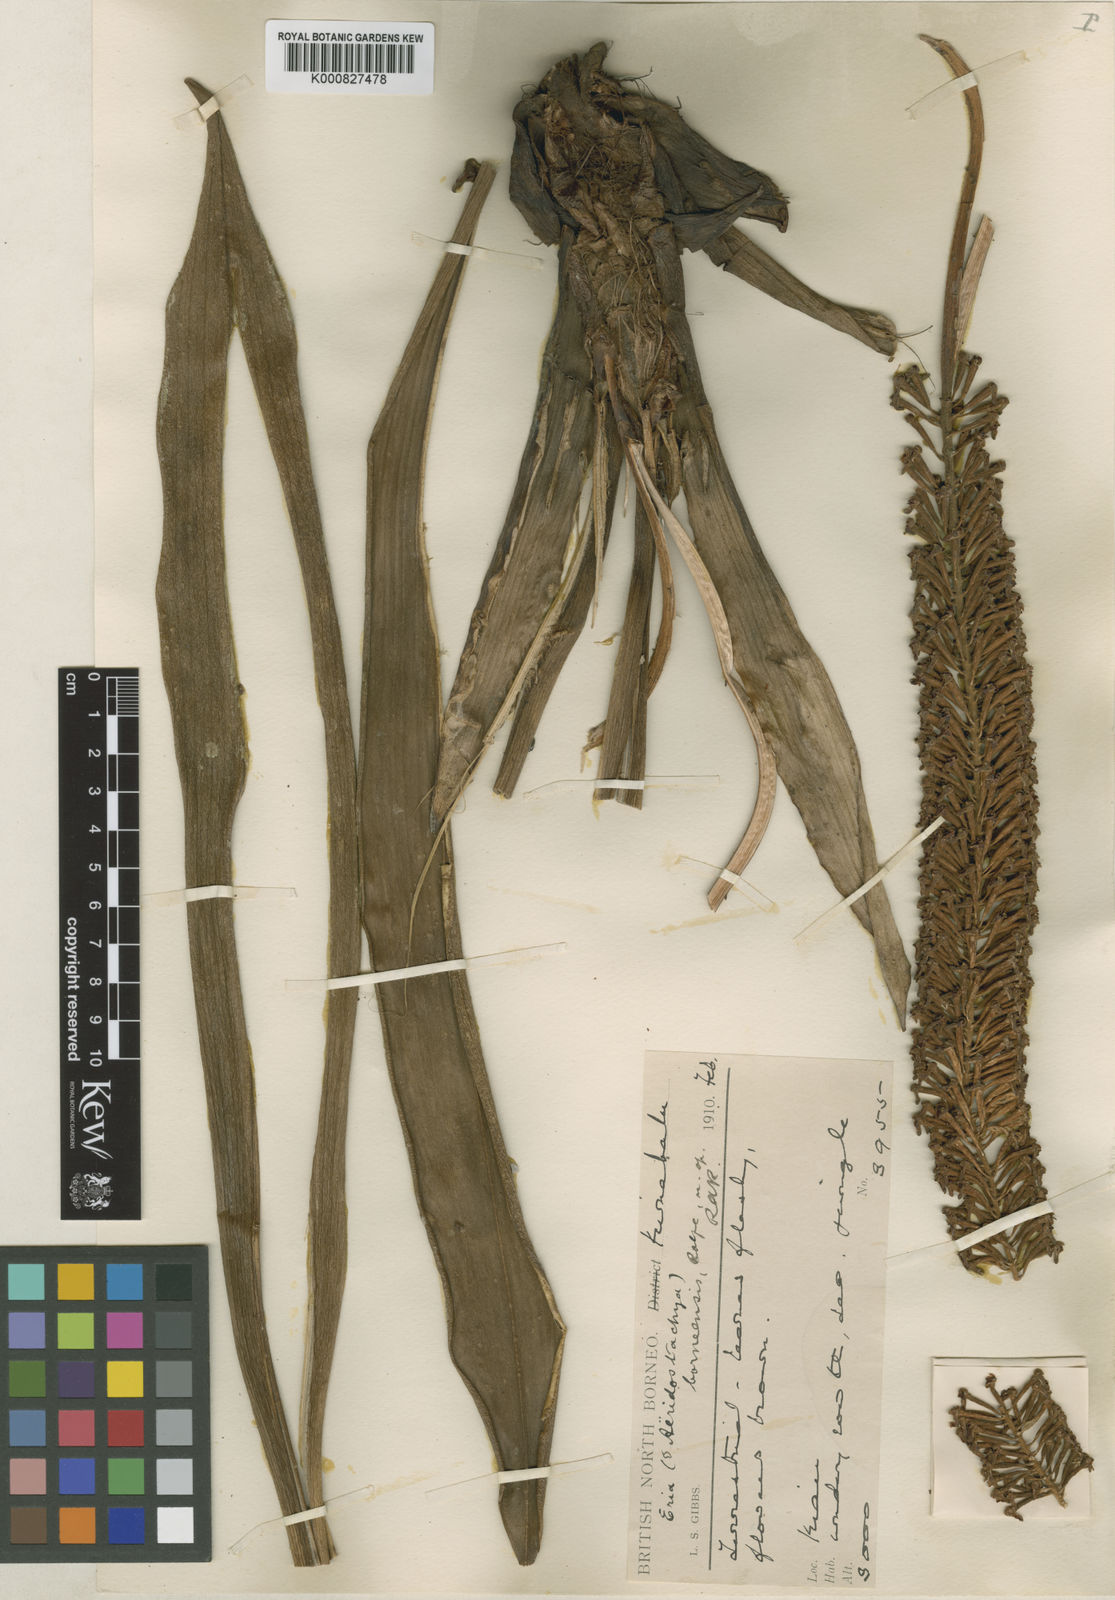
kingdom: Plantae
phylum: Tracheophyta
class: Liliopsida
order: Asparagales
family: Orchidaceae
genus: Aeridostachya
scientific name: Aeridostachya robusta
